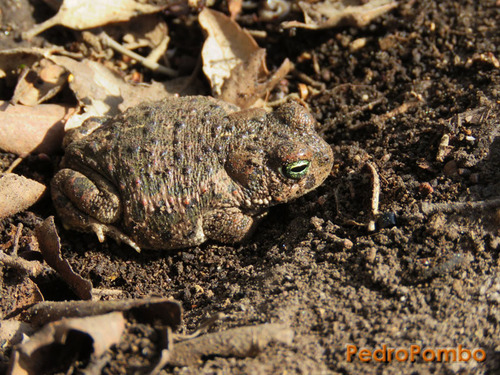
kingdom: Animalia
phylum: Chordata
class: Amphibia
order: Anura
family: Bufonidae
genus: Epidalea
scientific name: Epidalea calamita
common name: Natterjack toad
